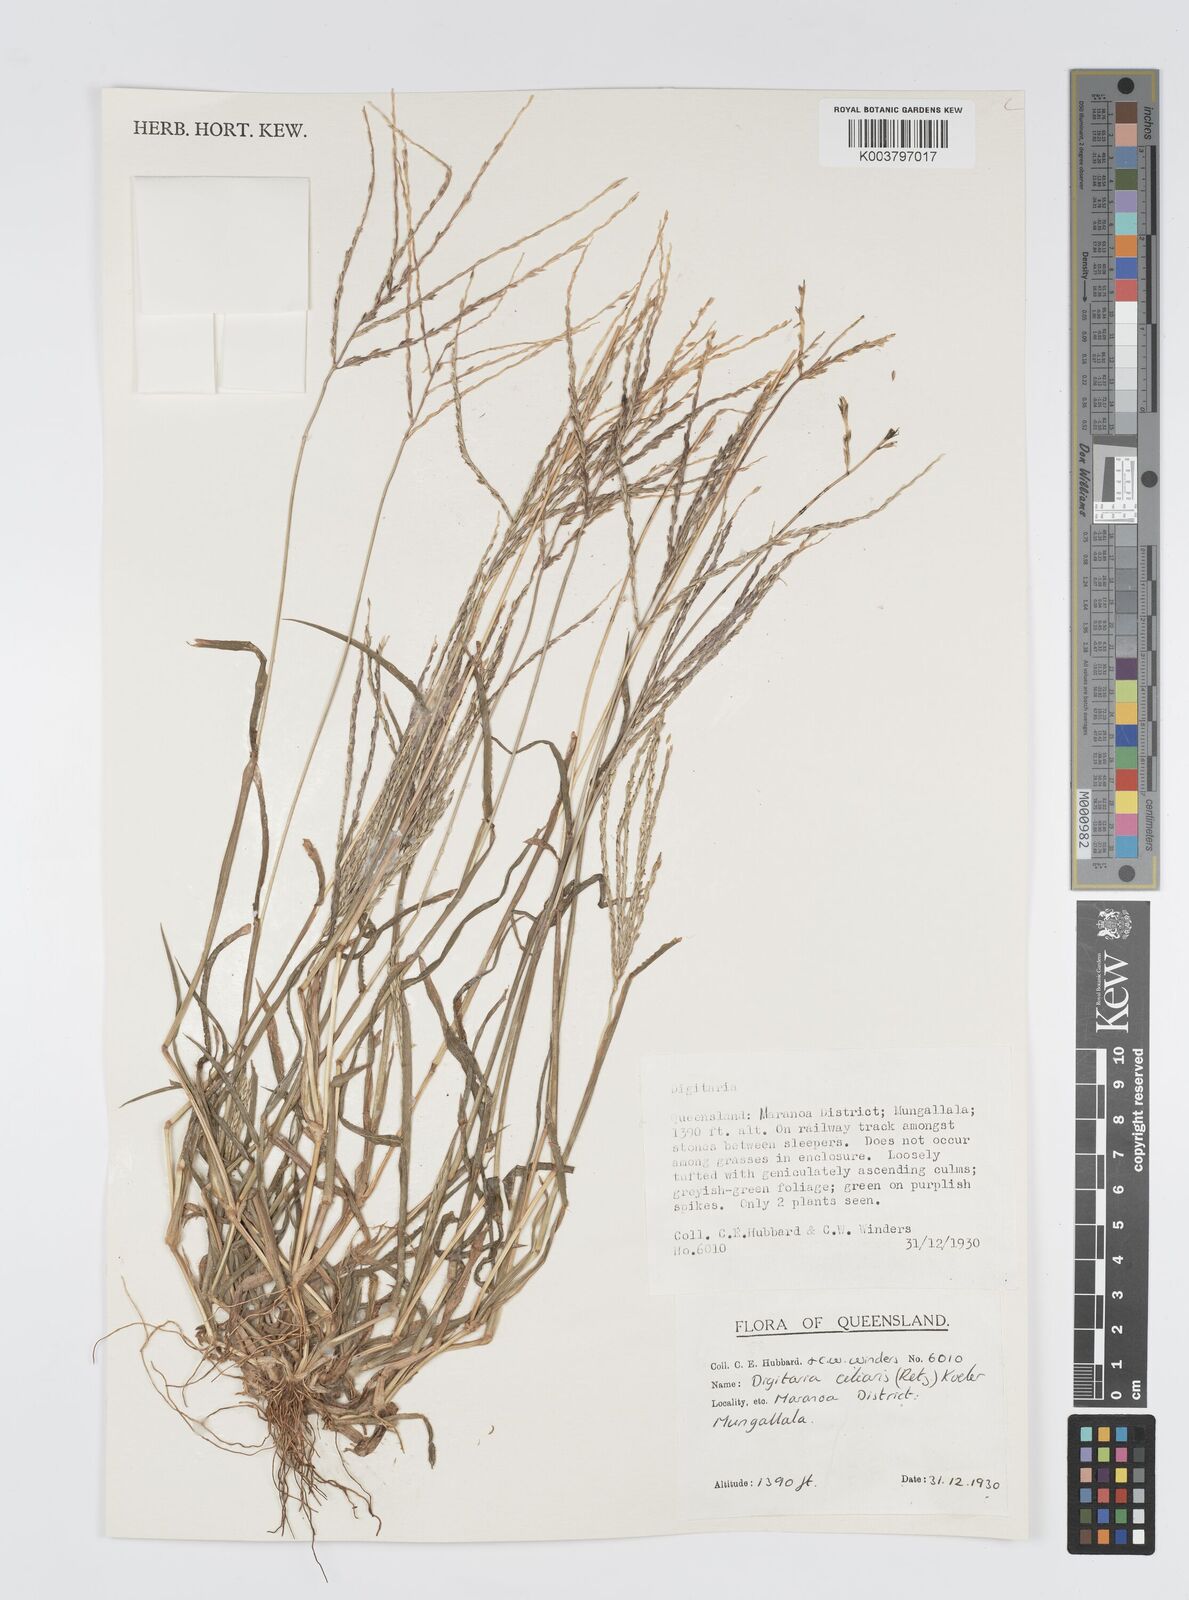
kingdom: Plantae
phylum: Tracheophyta
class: Liliopsida
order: Poales
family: Poaceae
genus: Digitaria
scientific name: Digitaria ciliaris
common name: Tropical finger-grass
